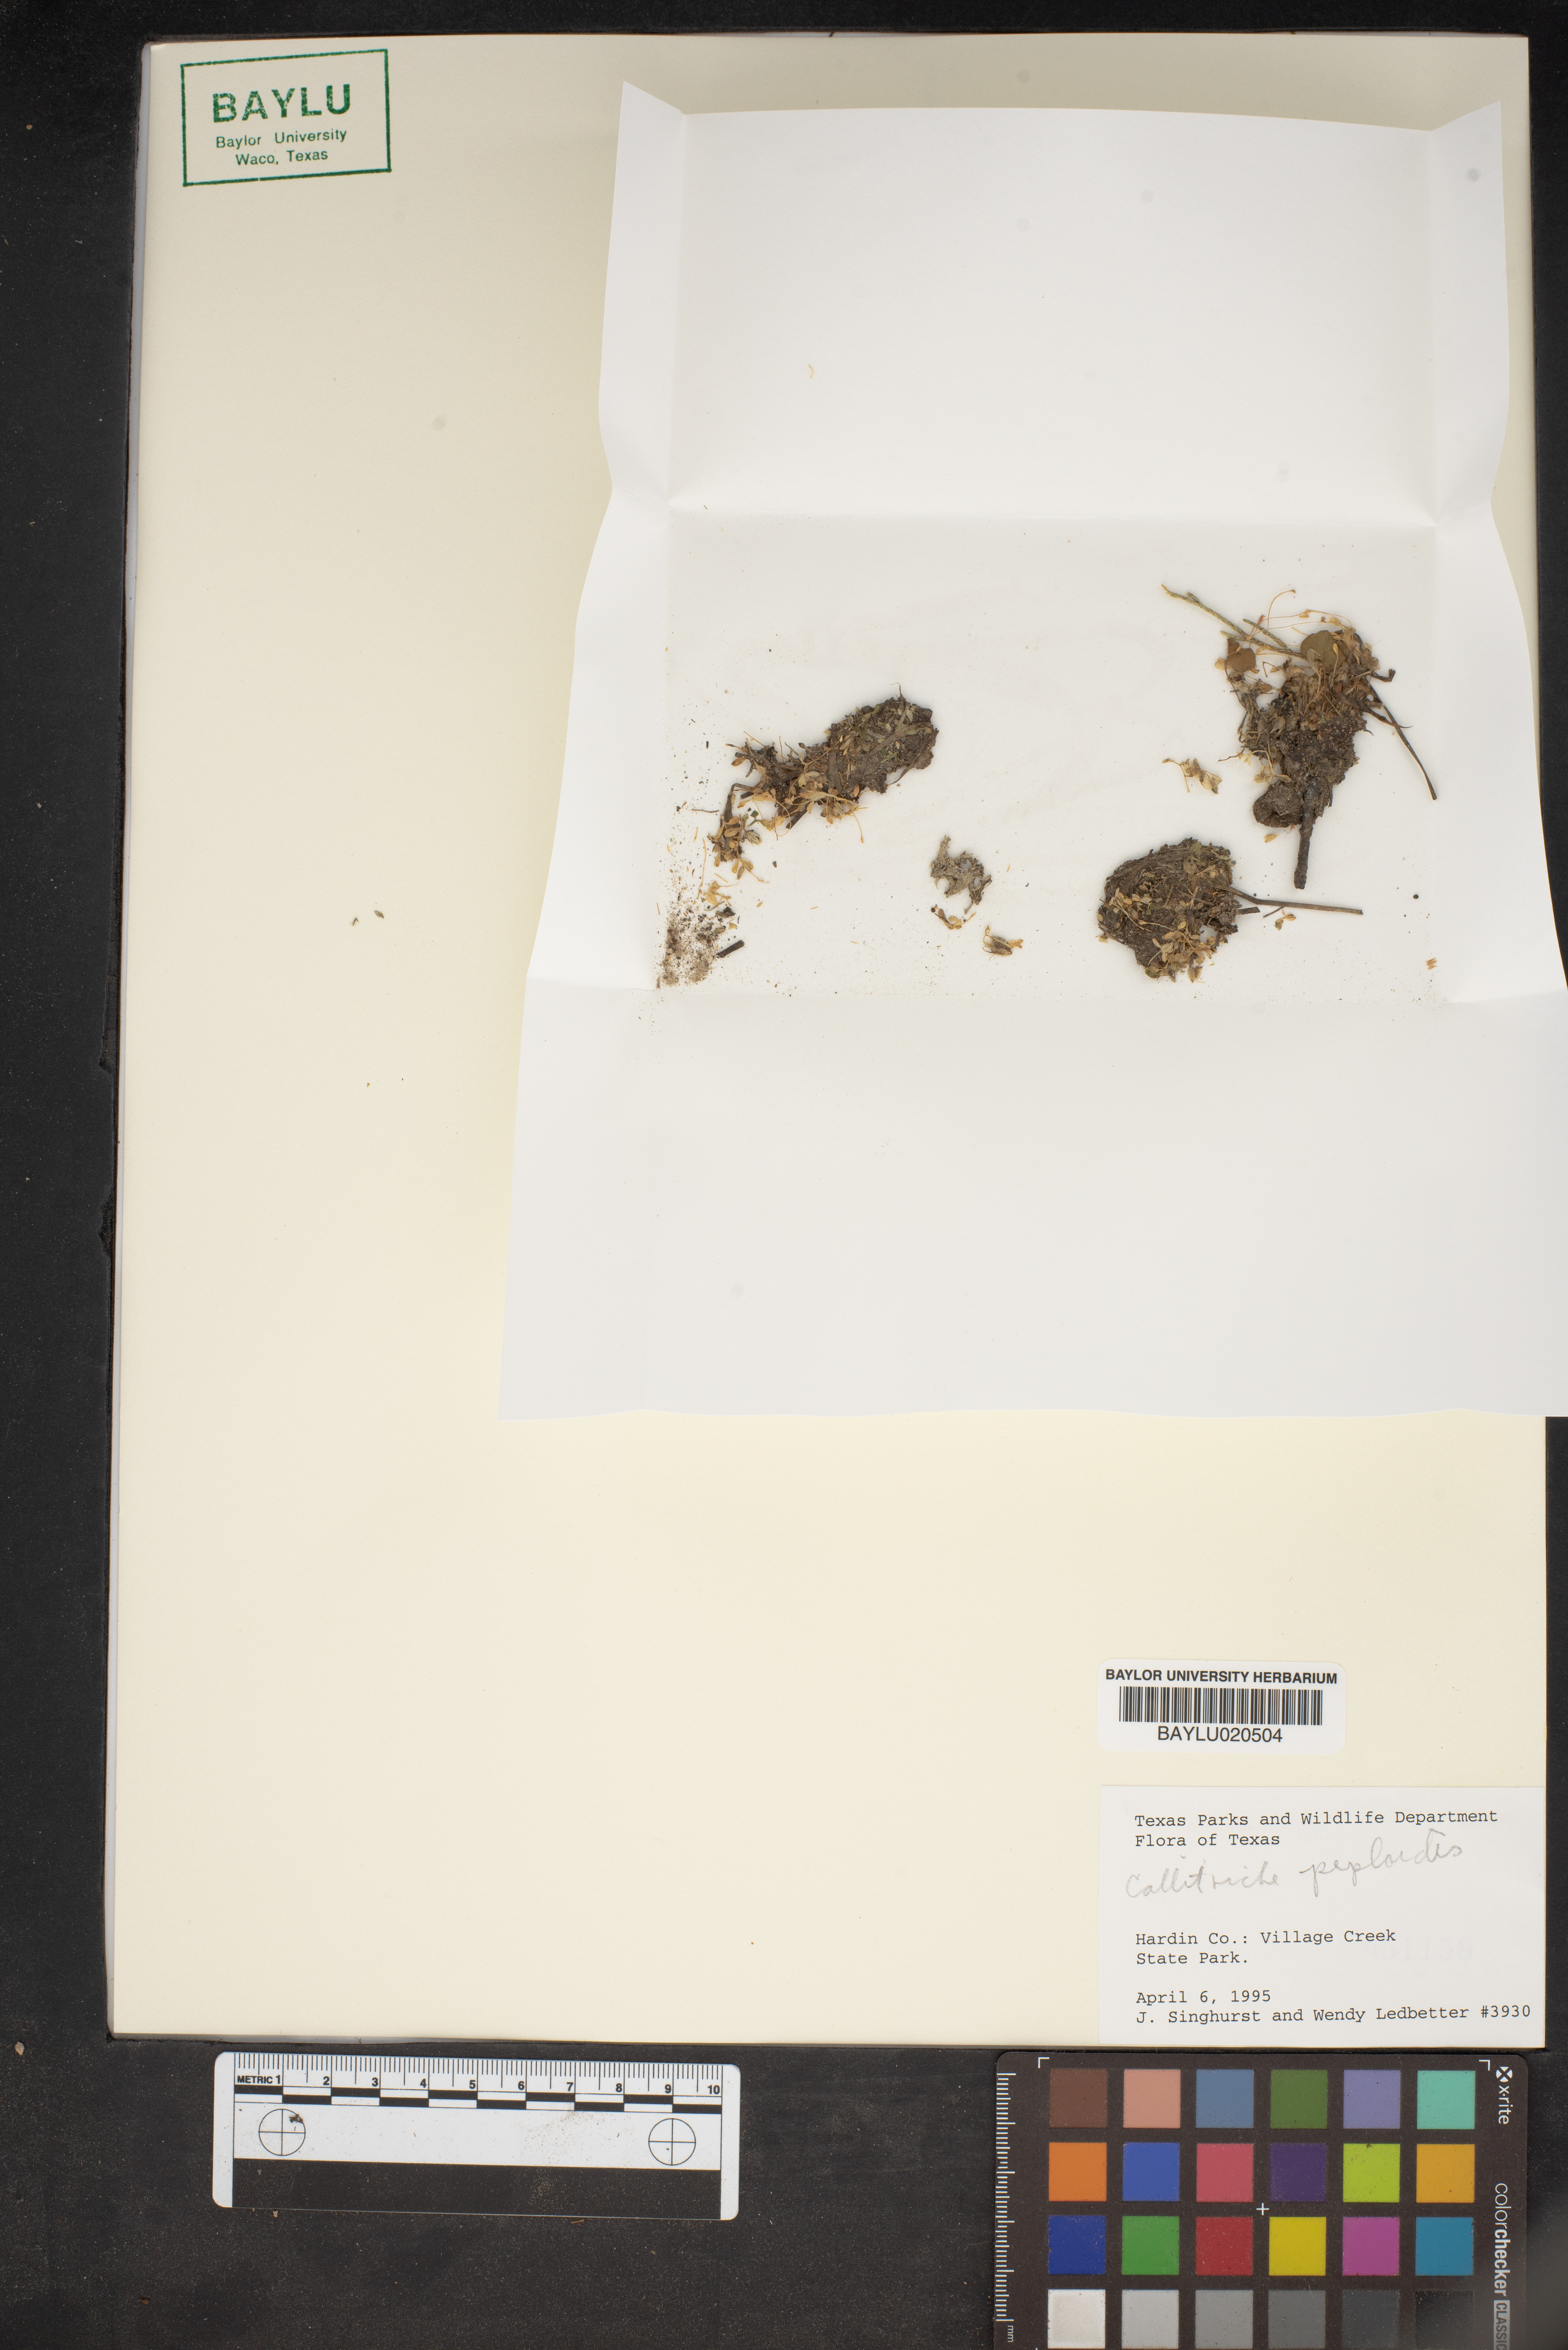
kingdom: Plantae
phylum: Tracheophyta
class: Magnoliopsida
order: Lamiales
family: Plantaginaceae
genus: Callitriche
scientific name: Callitriche peploides
